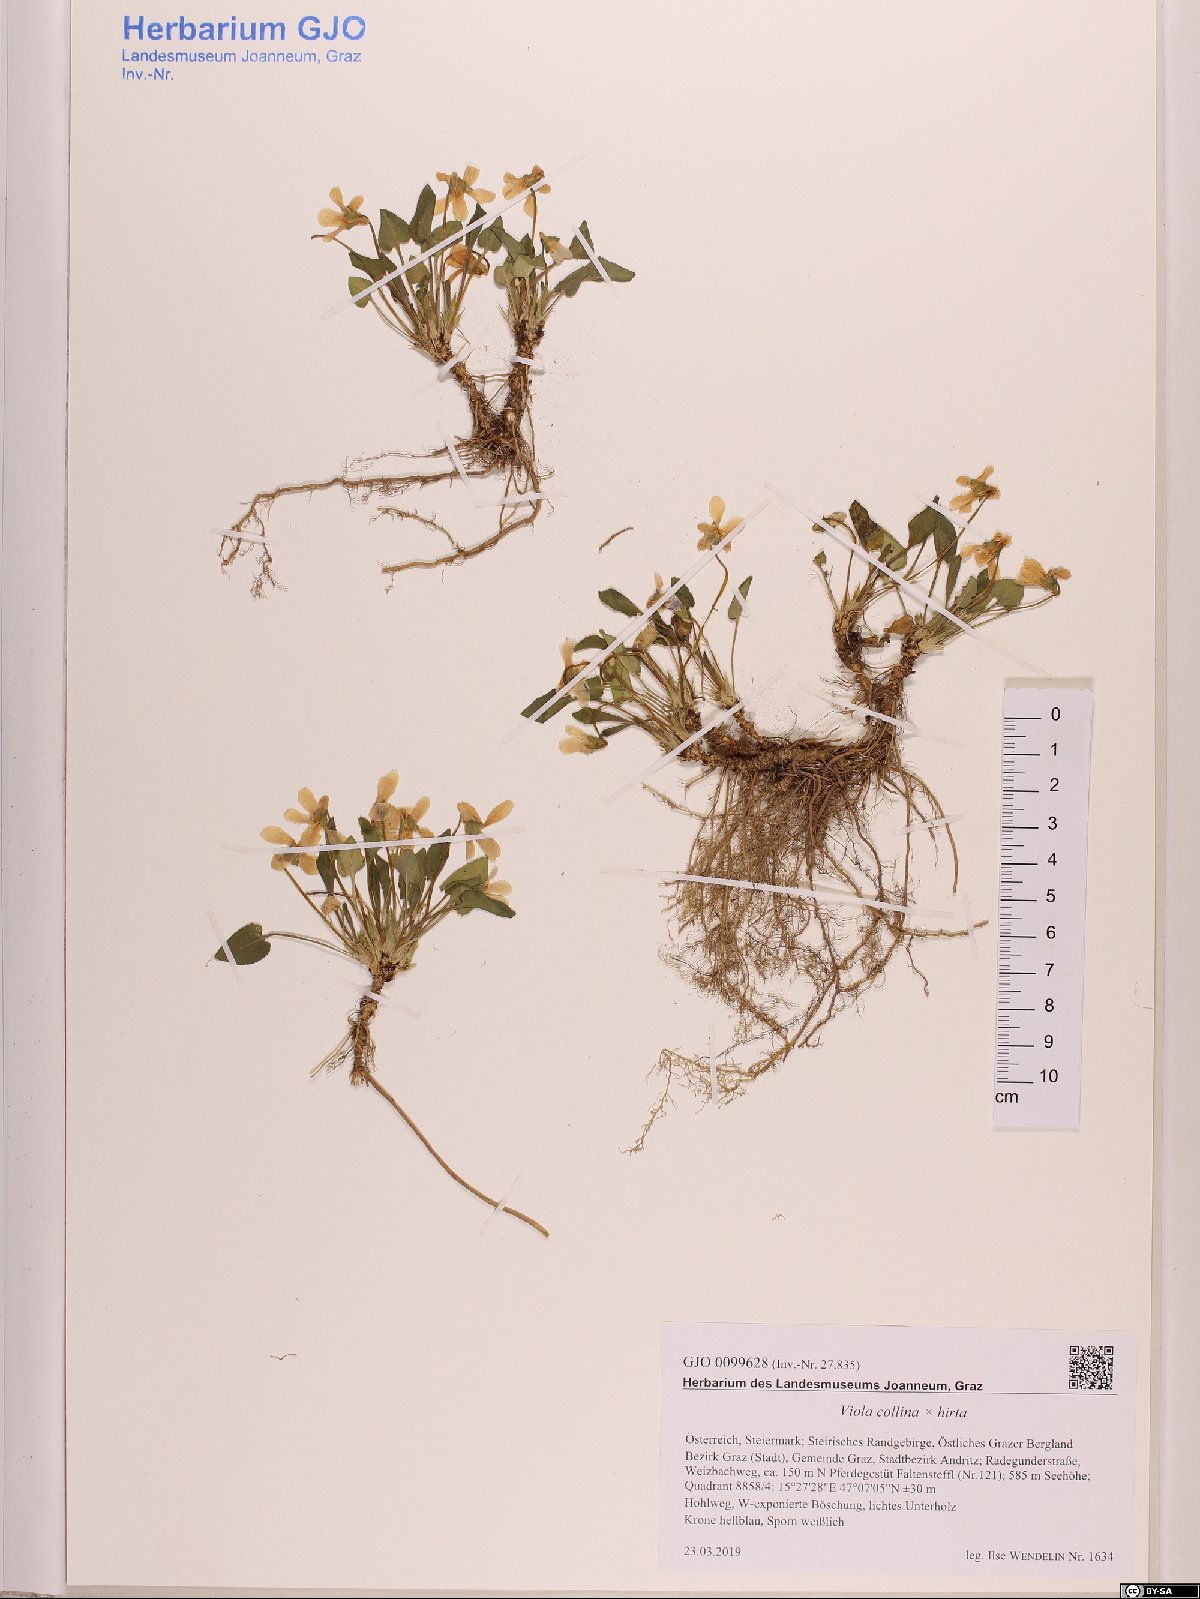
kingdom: Plantae
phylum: Tracheophyta
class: Magnoliopsida
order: Malpighiales
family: Violaceae
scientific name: Violaceae
